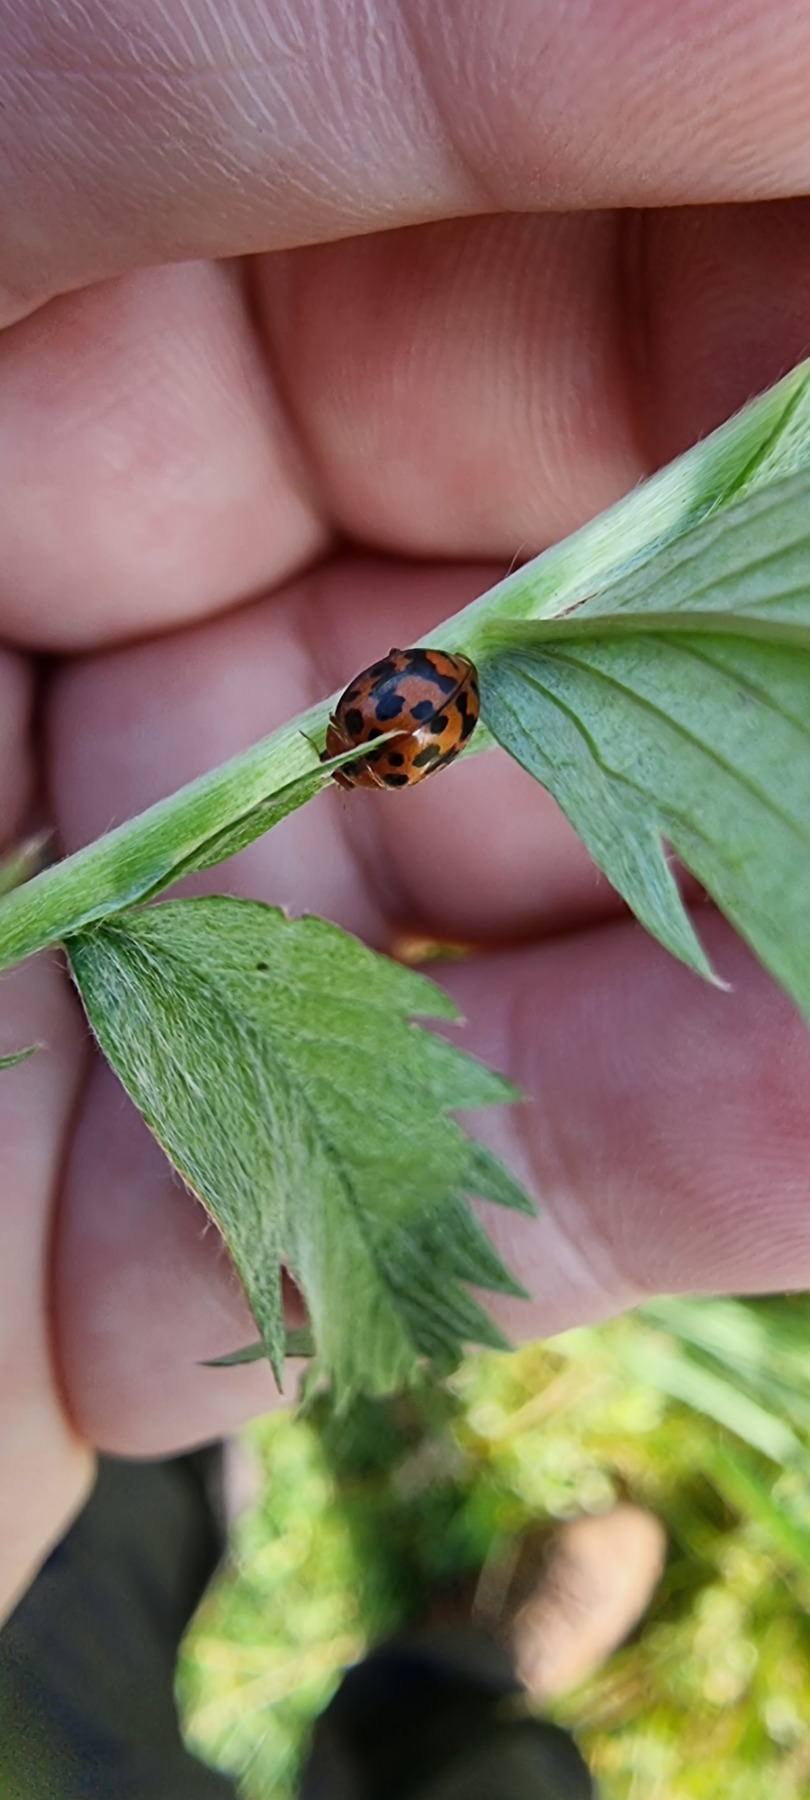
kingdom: Animalia
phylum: Arthropoda
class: Insecta
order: Coleoptera
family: Coccinellidae
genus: Subcoccinella
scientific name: Subcoccinella vigintiquatuorpunctata
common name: Fireogtyveplettet mariehøne
